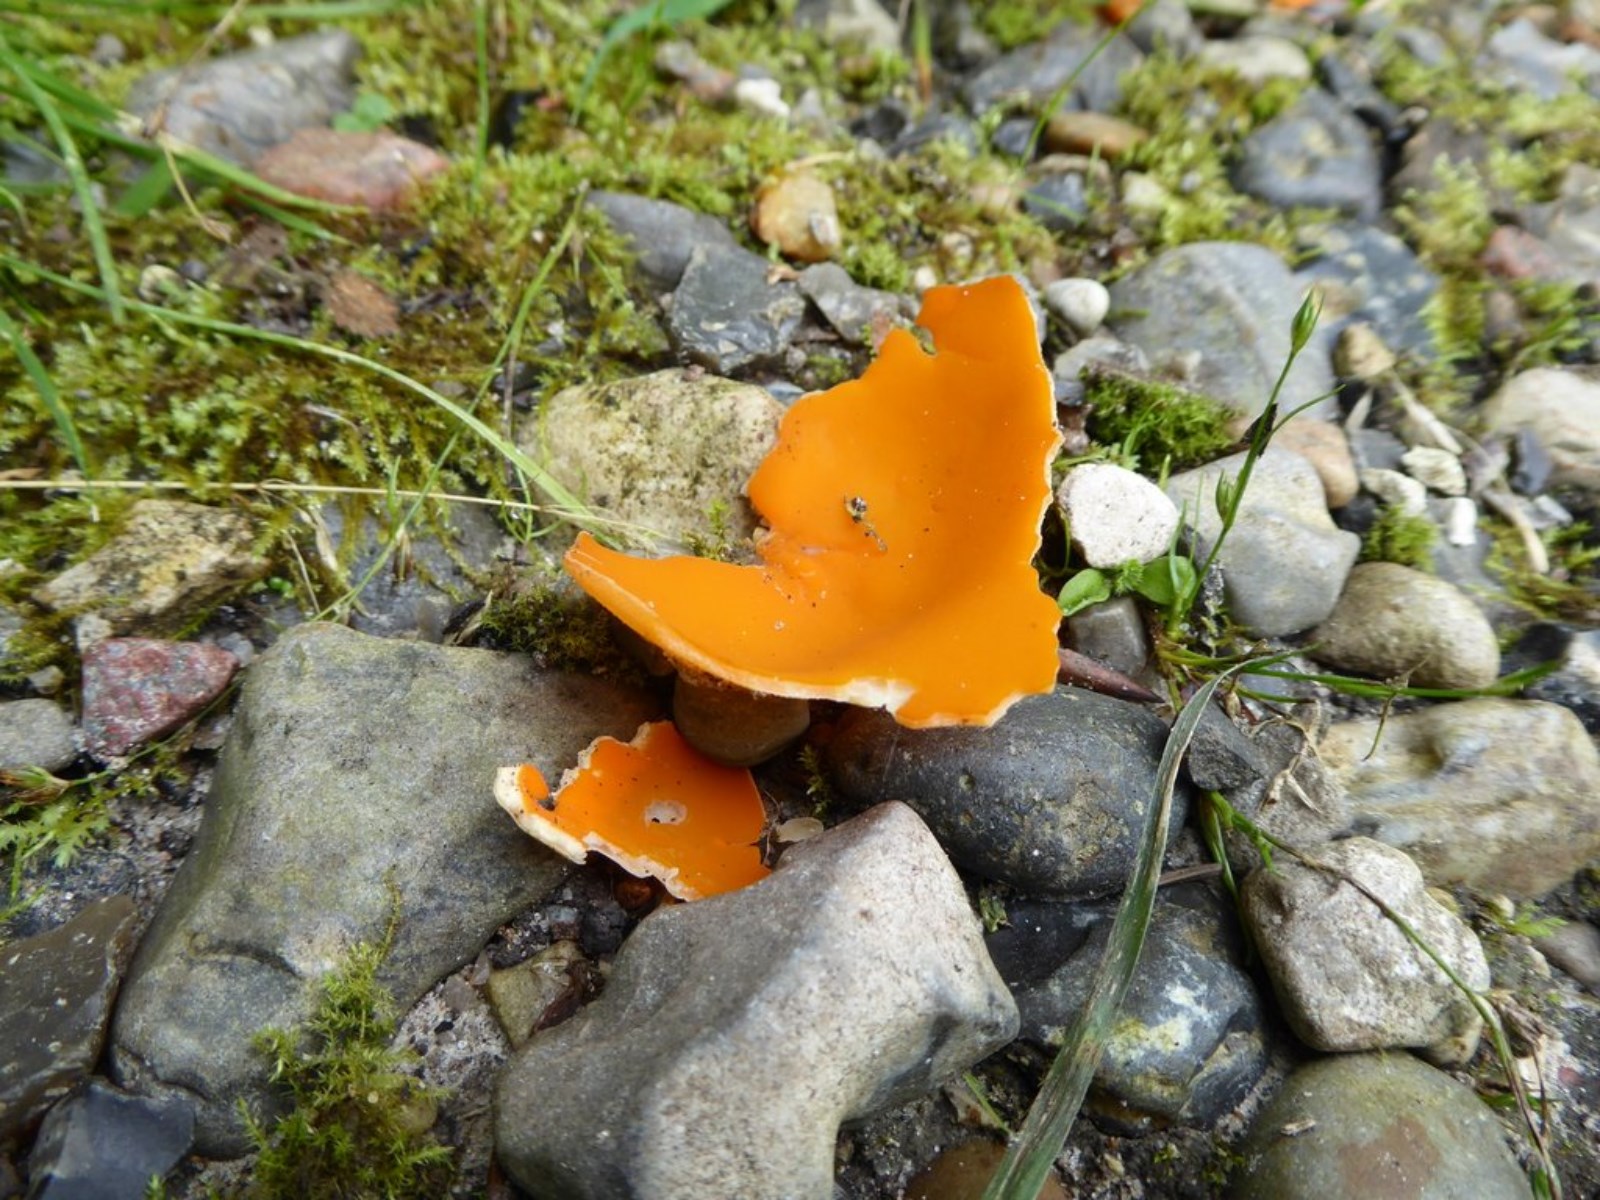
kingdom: Fungi
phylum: Ascomycota
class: Pezizomycetes
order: Pezizales
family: Pyronemataceae
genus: Aleuria
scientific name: Aleuria aurantia
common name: almindelig orangebæger
